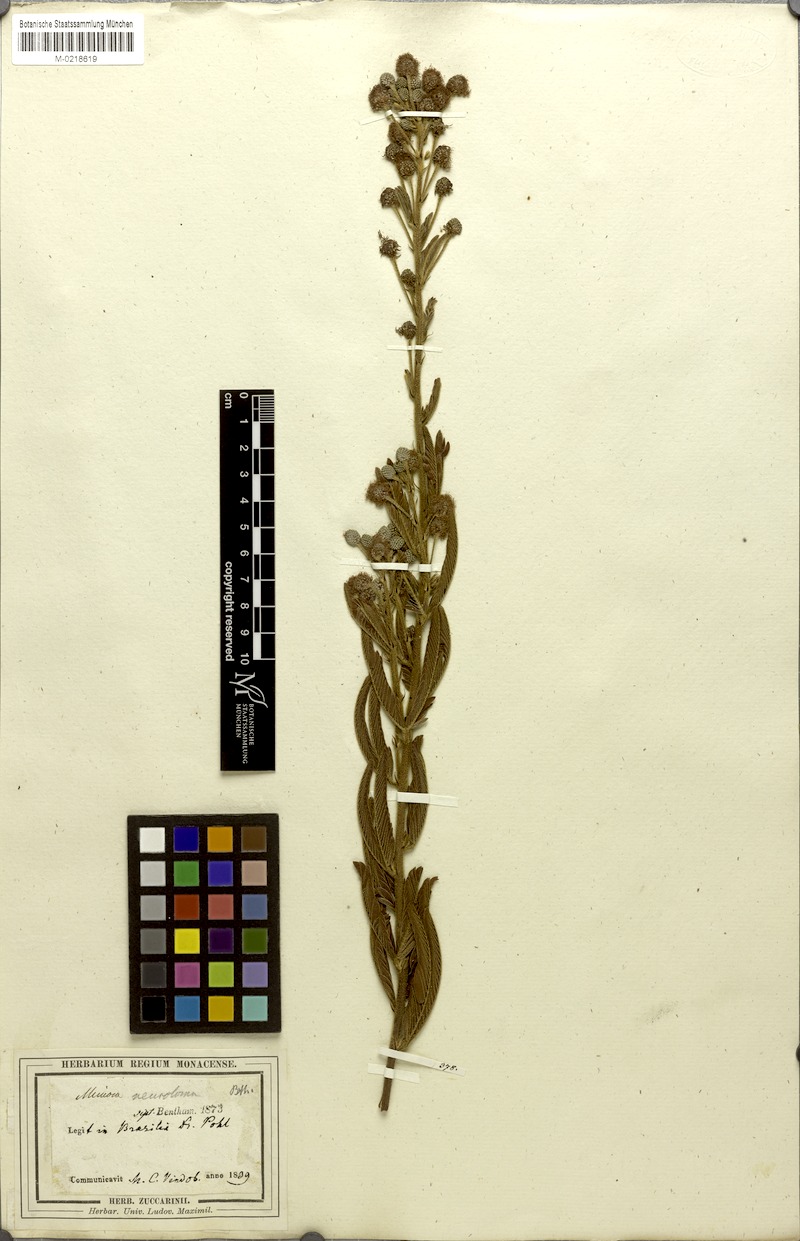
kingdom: Plantae
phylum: Tracheophyta
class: Magnoliopsida
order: Fabales
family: Fabaceae
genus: Mimosa
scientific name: Mimosa distans
